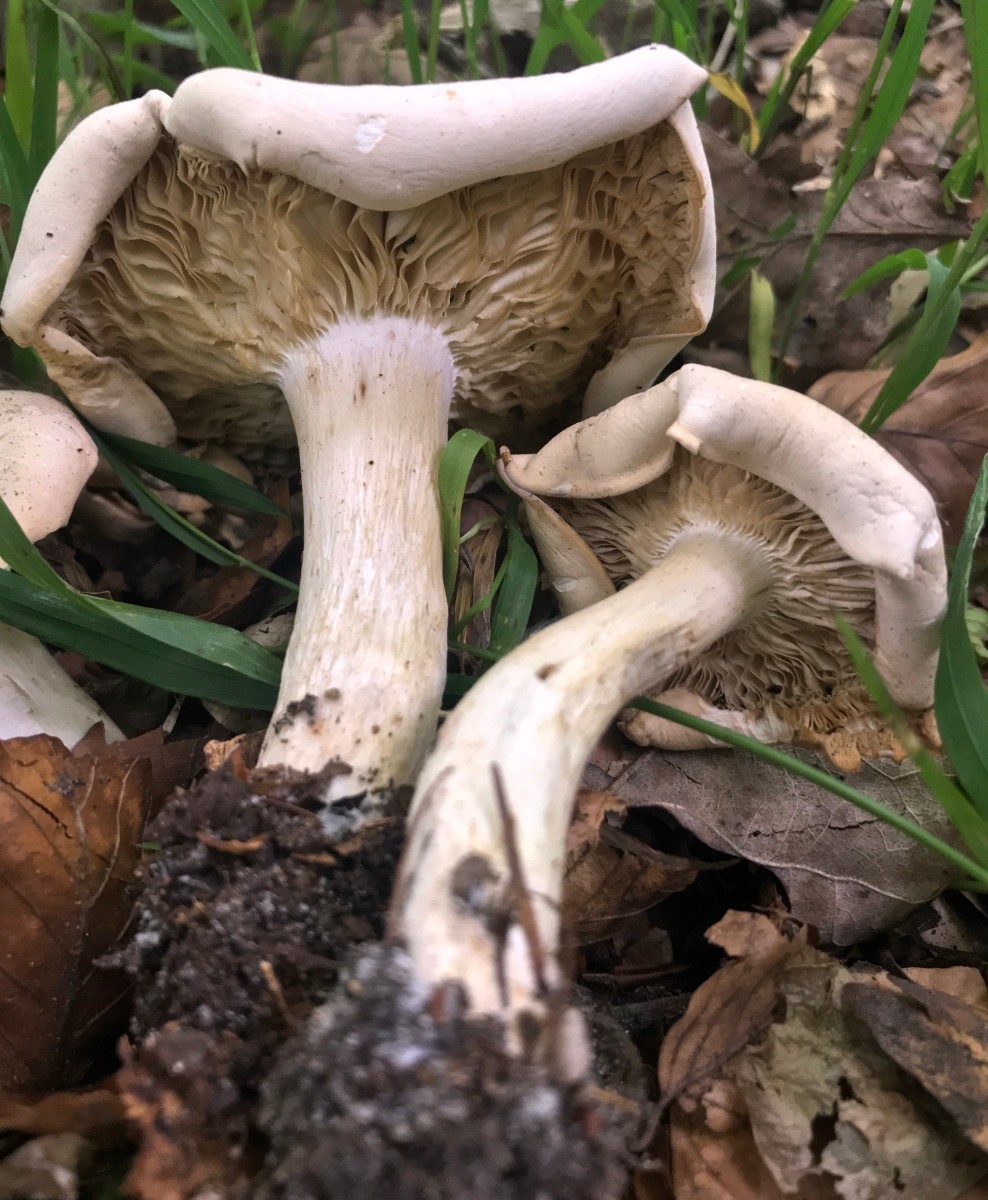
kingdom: Fungi
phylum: Basidiomycota
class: Agaricomycetes
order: Agaricales
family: Lyophyllaceae
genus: Calocybe
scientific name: Calocybe gambosa
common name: vårmusseron
